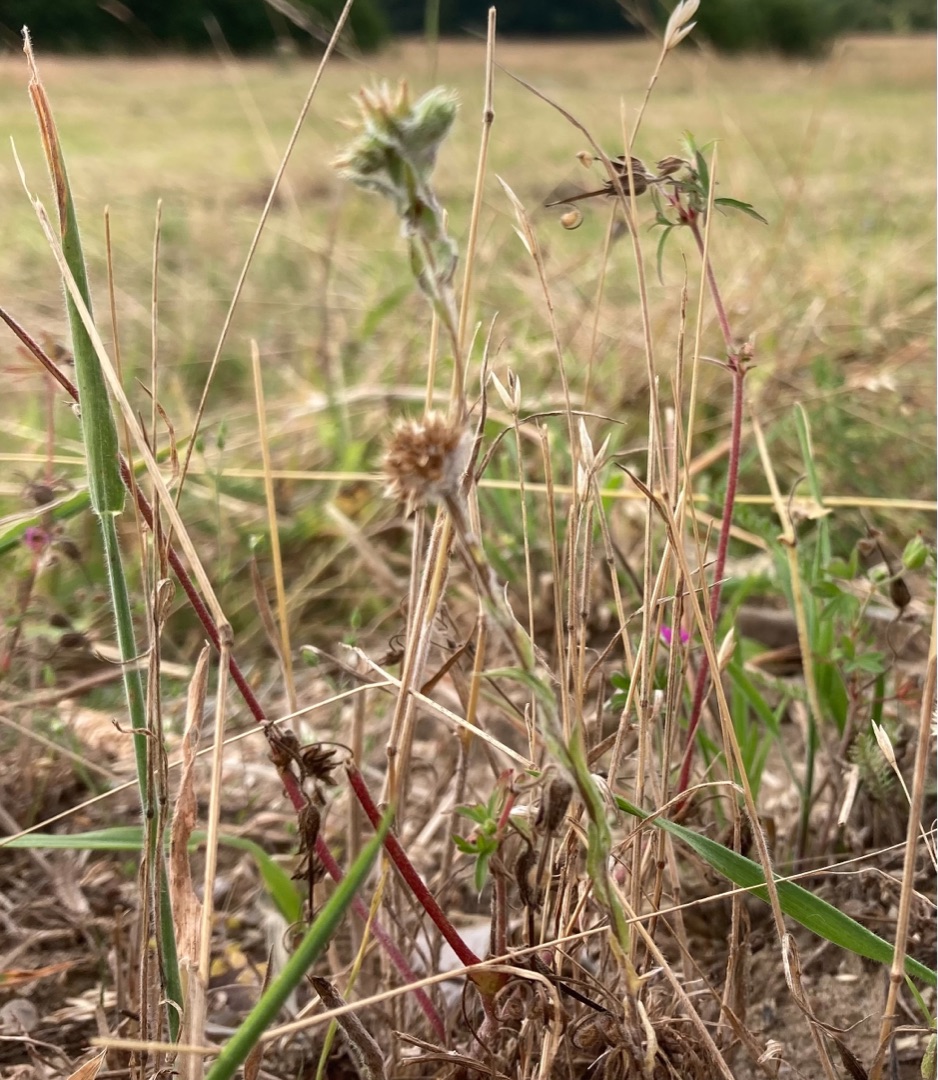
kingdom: Plantae
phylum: Tracheophyta
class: Magnoliopsida
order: Asterales
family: Asteraceae
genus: Filago
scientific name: Filago germanica
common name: Kugle-museurt
